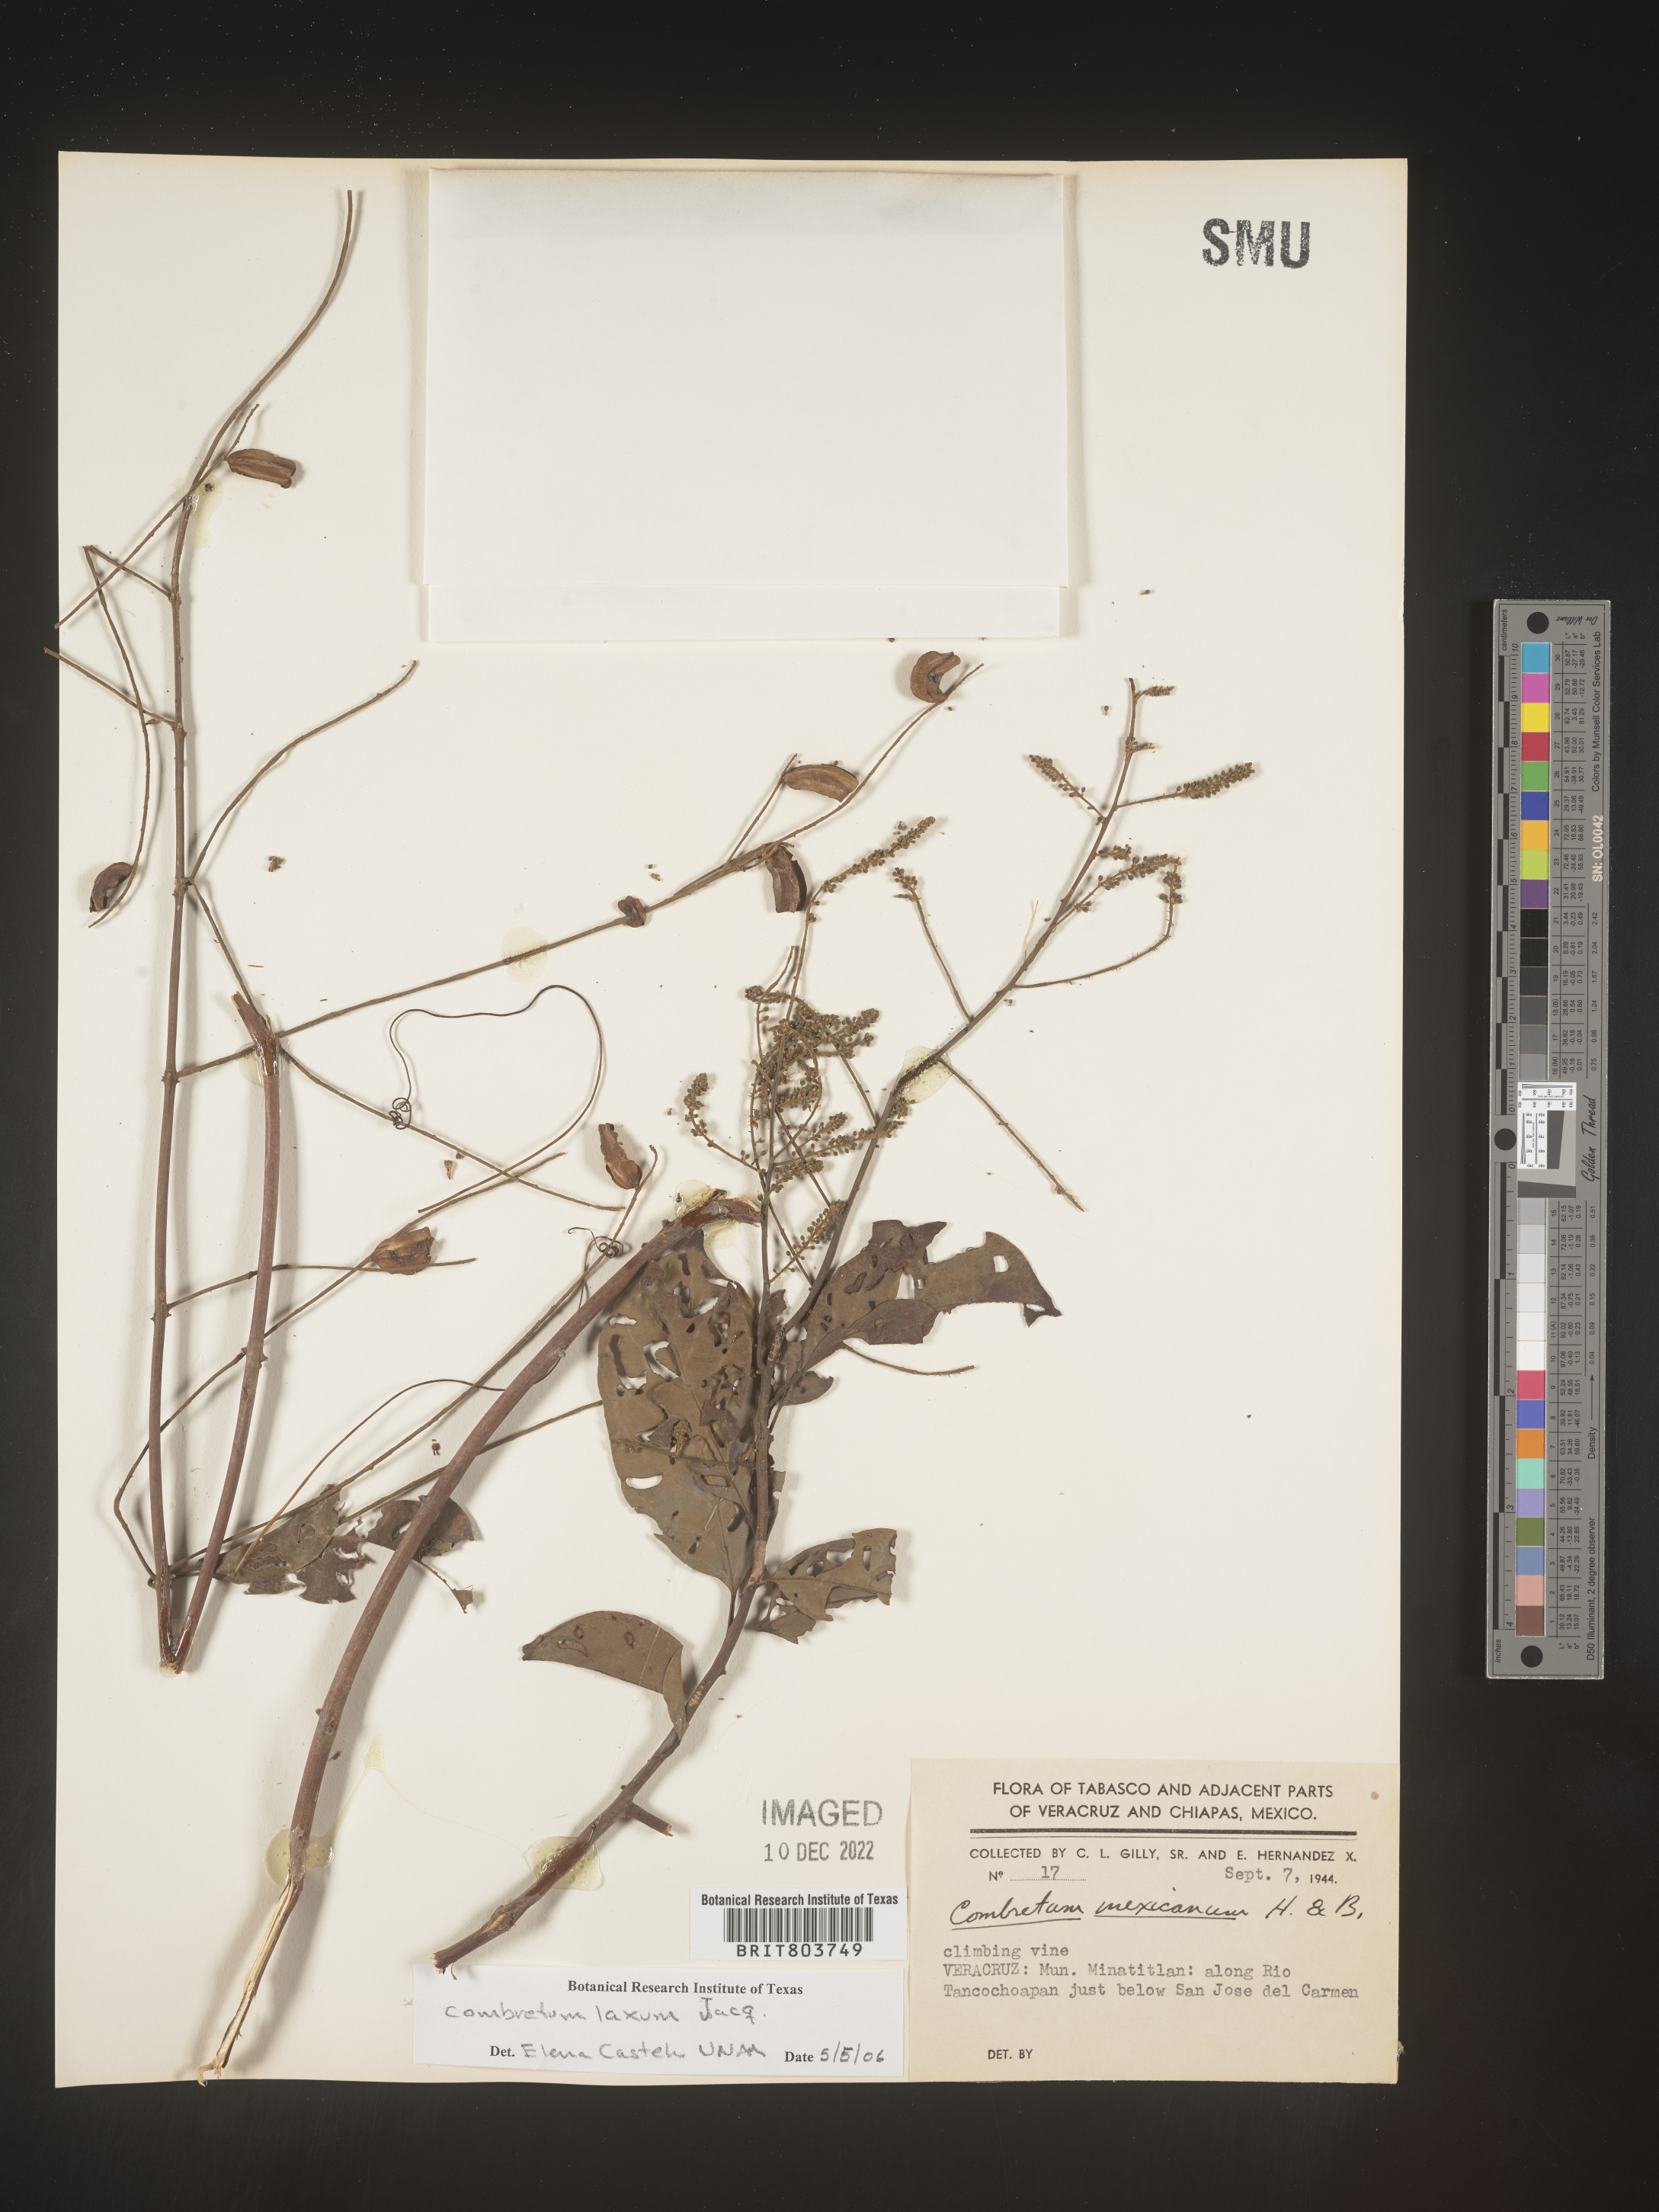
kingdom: Plantae
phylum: Tracheophyta
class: Magnoliopsida
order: Myrtales
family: Combretaceae
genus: Combretum
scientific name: Combretum
